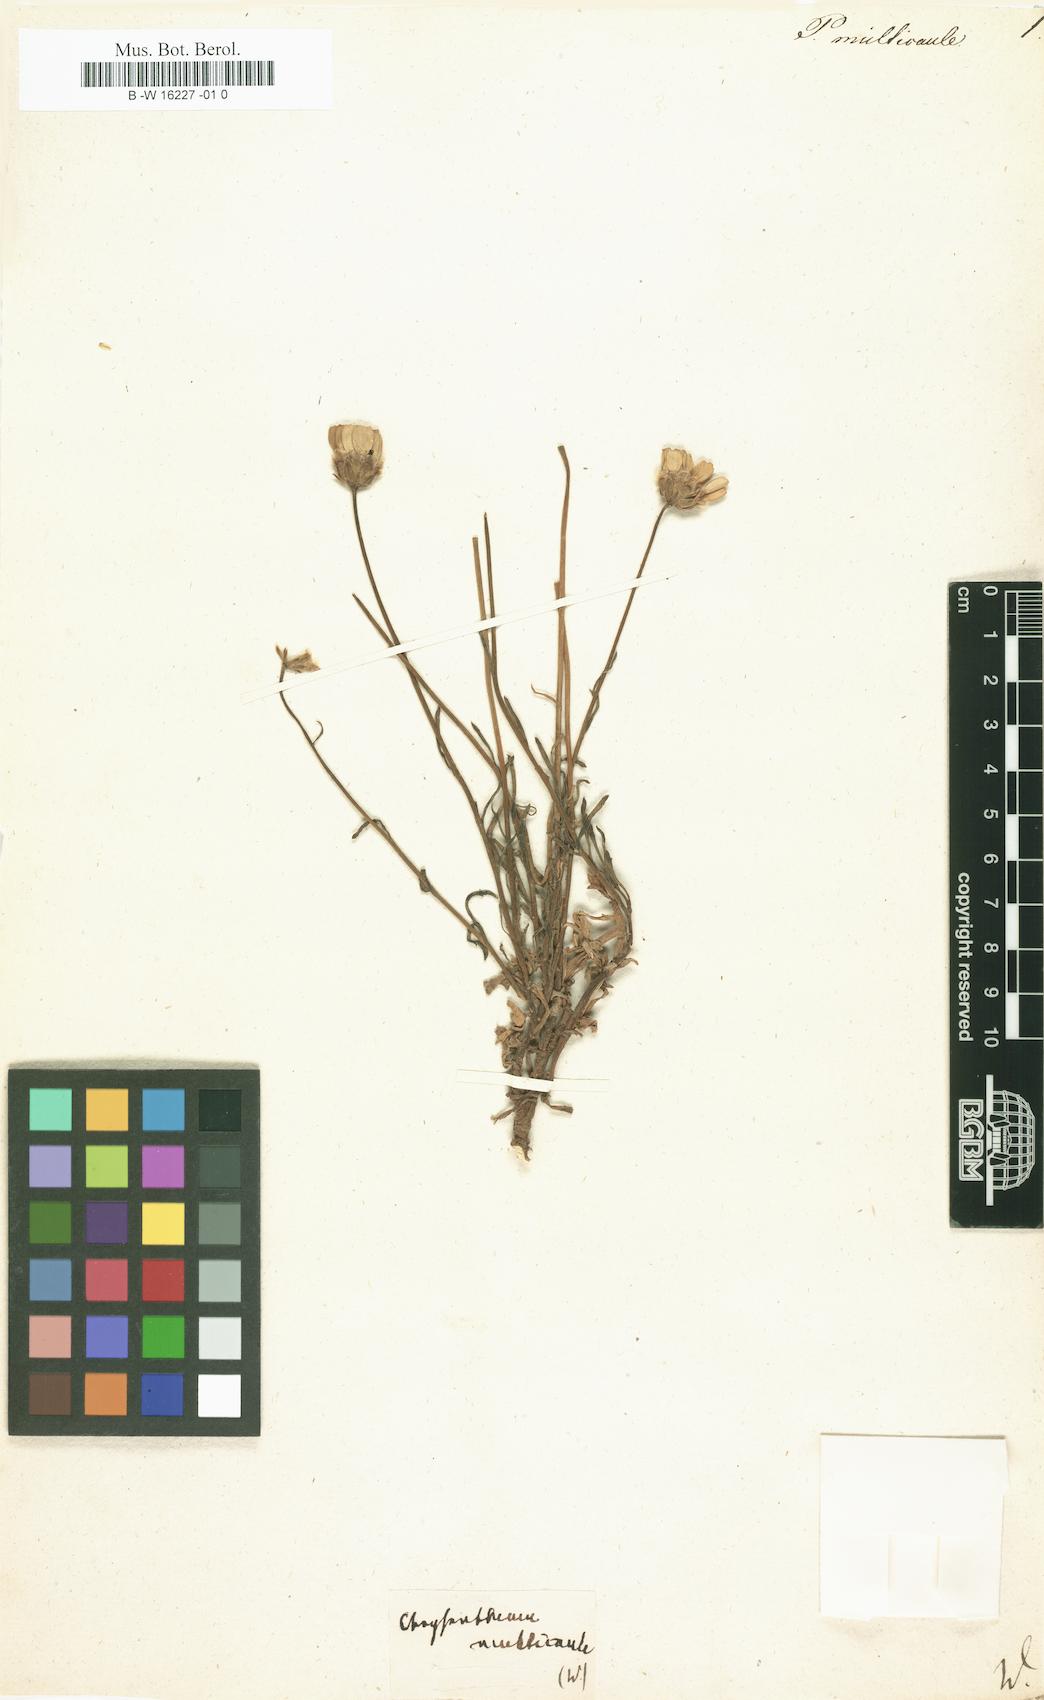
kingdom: Plantae
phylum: Tracheophyta
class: Magnoliopsida
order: Asterales
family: Asteraceae
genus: Coleostephus
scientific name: Coleostephus multicaulis
